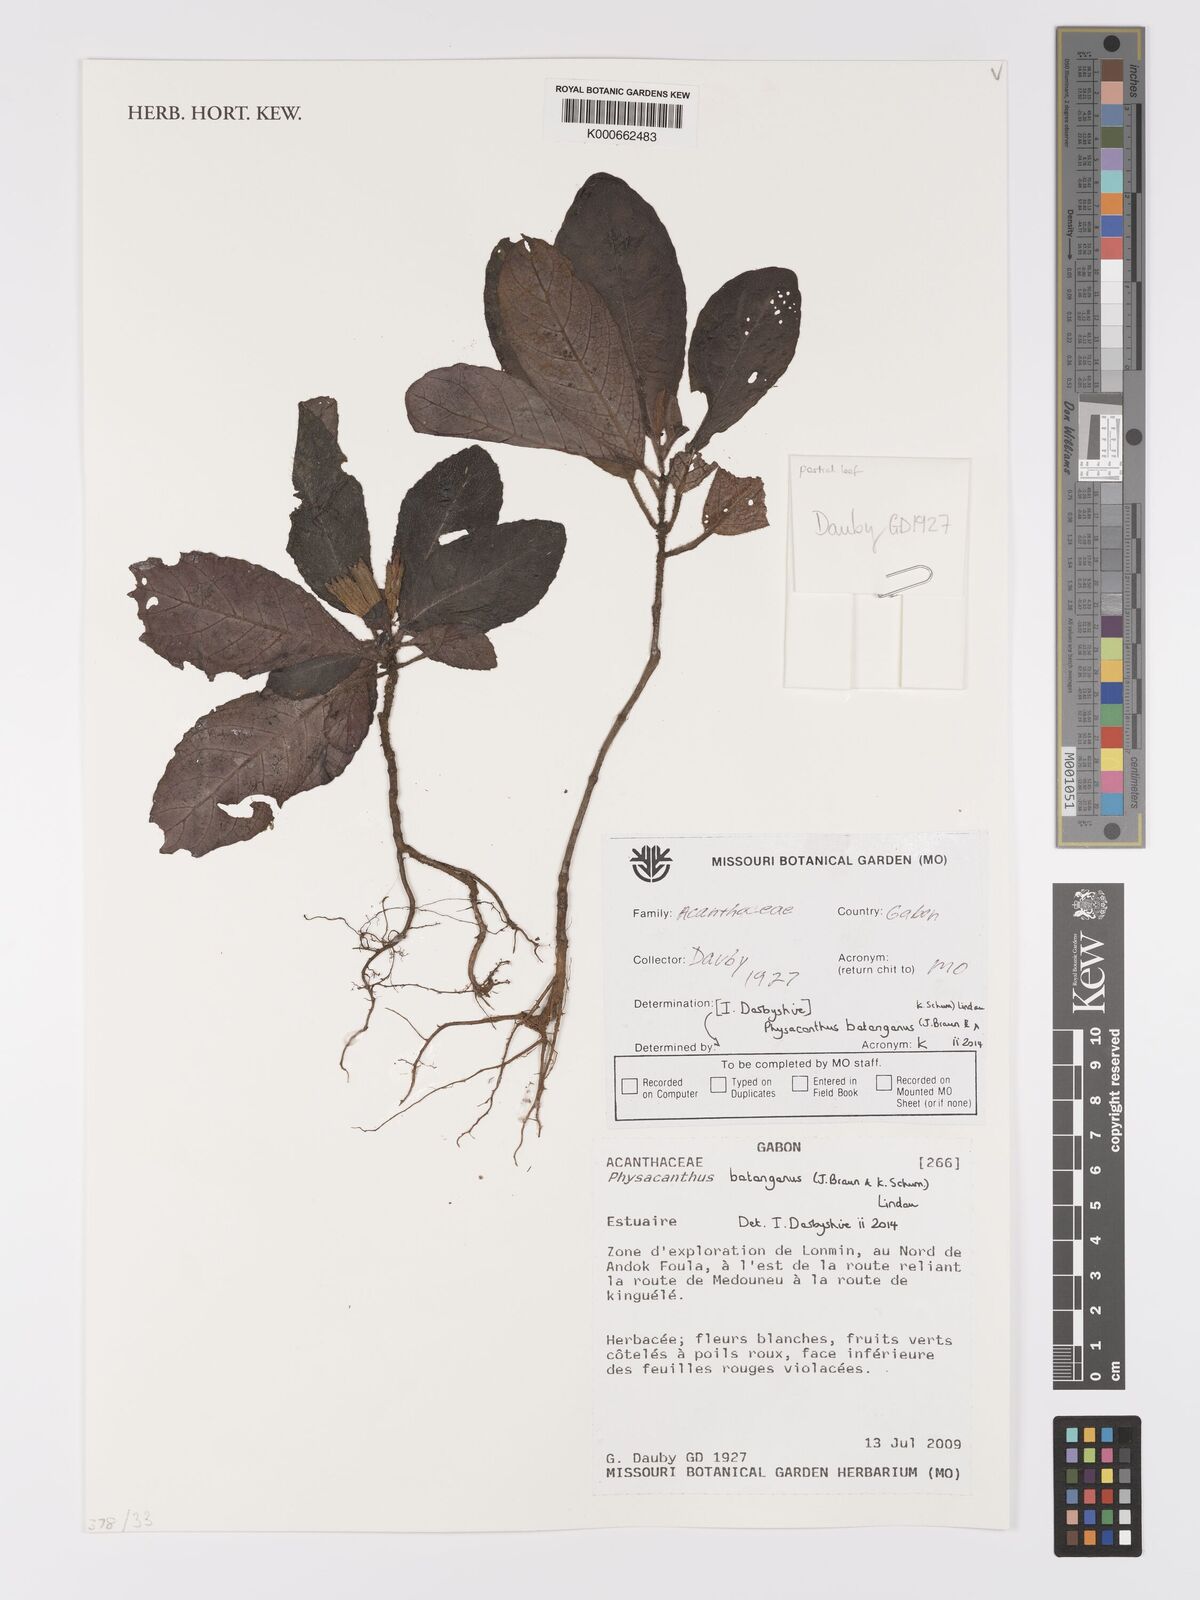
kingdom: Plantae
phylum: Tracheophyta
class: Magnoliopsida
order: Lamiales
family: Acanthaceae
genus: Physacanthus
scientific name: Physacanthus batanganus
